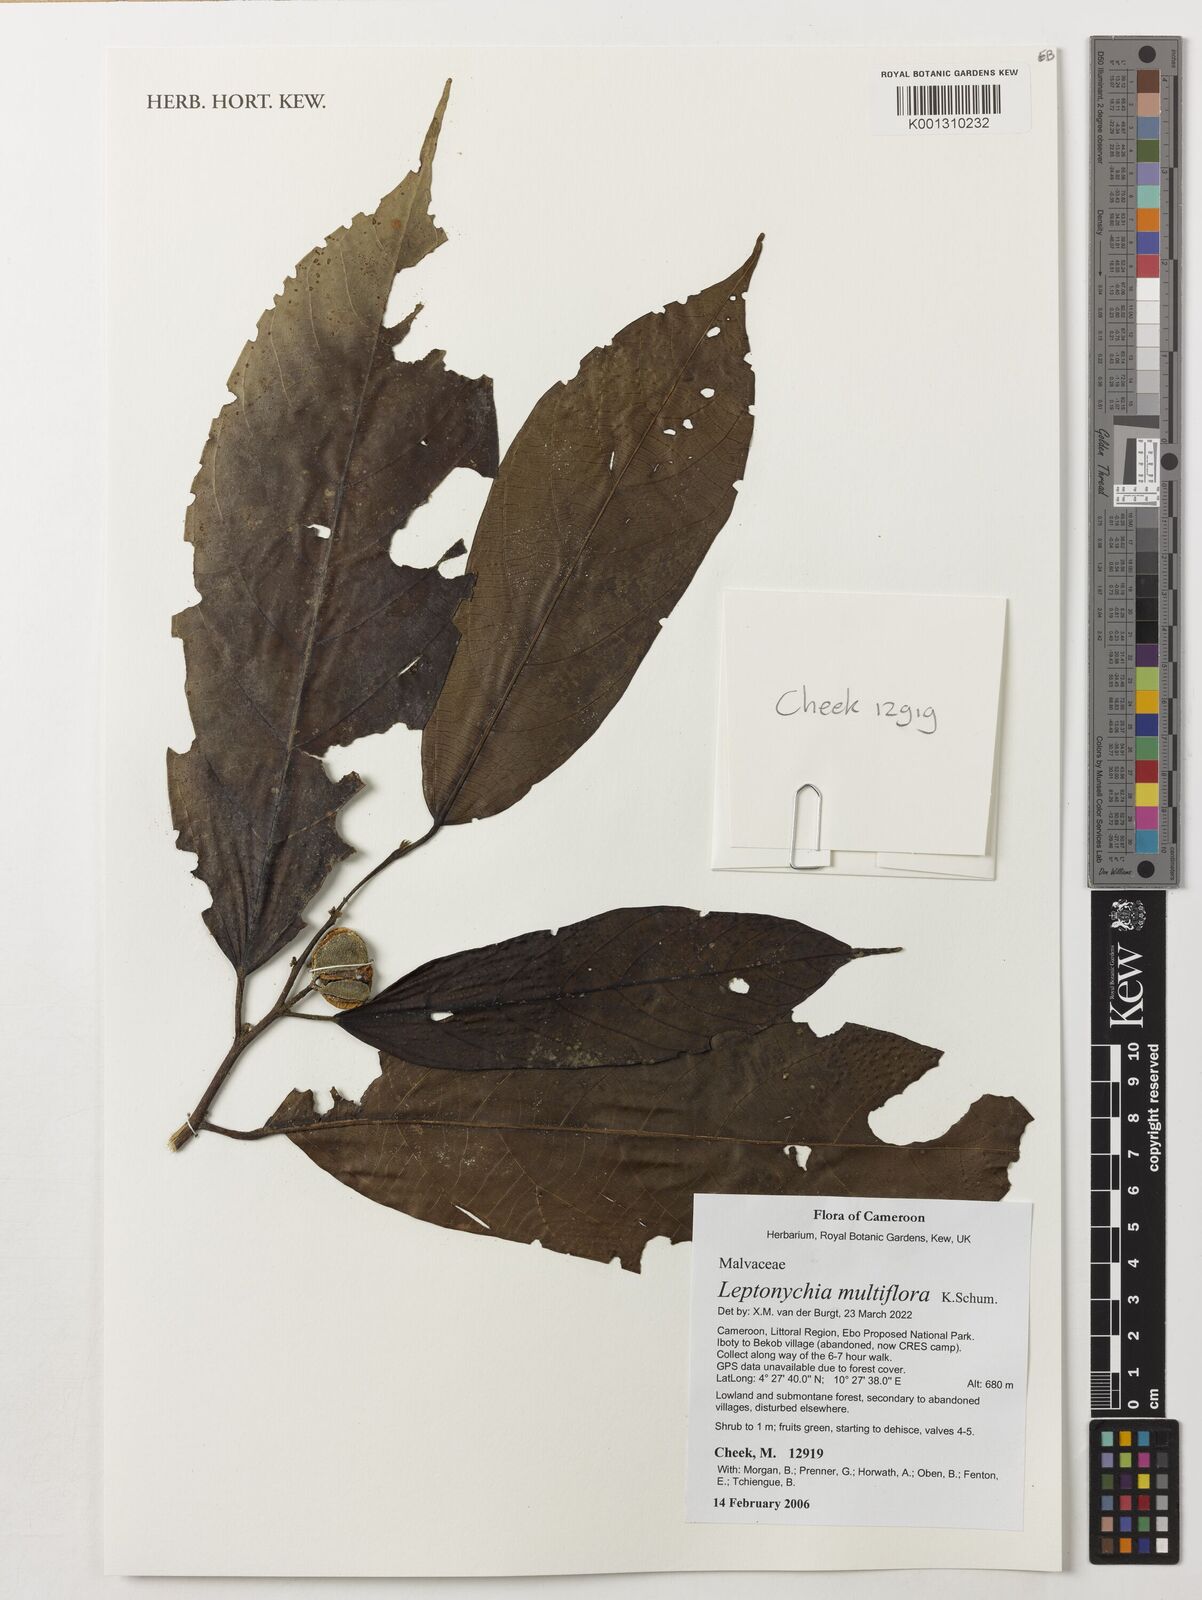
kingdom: Plantae
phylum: Tracheophyta
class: Magnoliopsida
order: Malvales
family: Malvaceae
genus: Leptonychia
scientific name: Leptonychia multiflora
